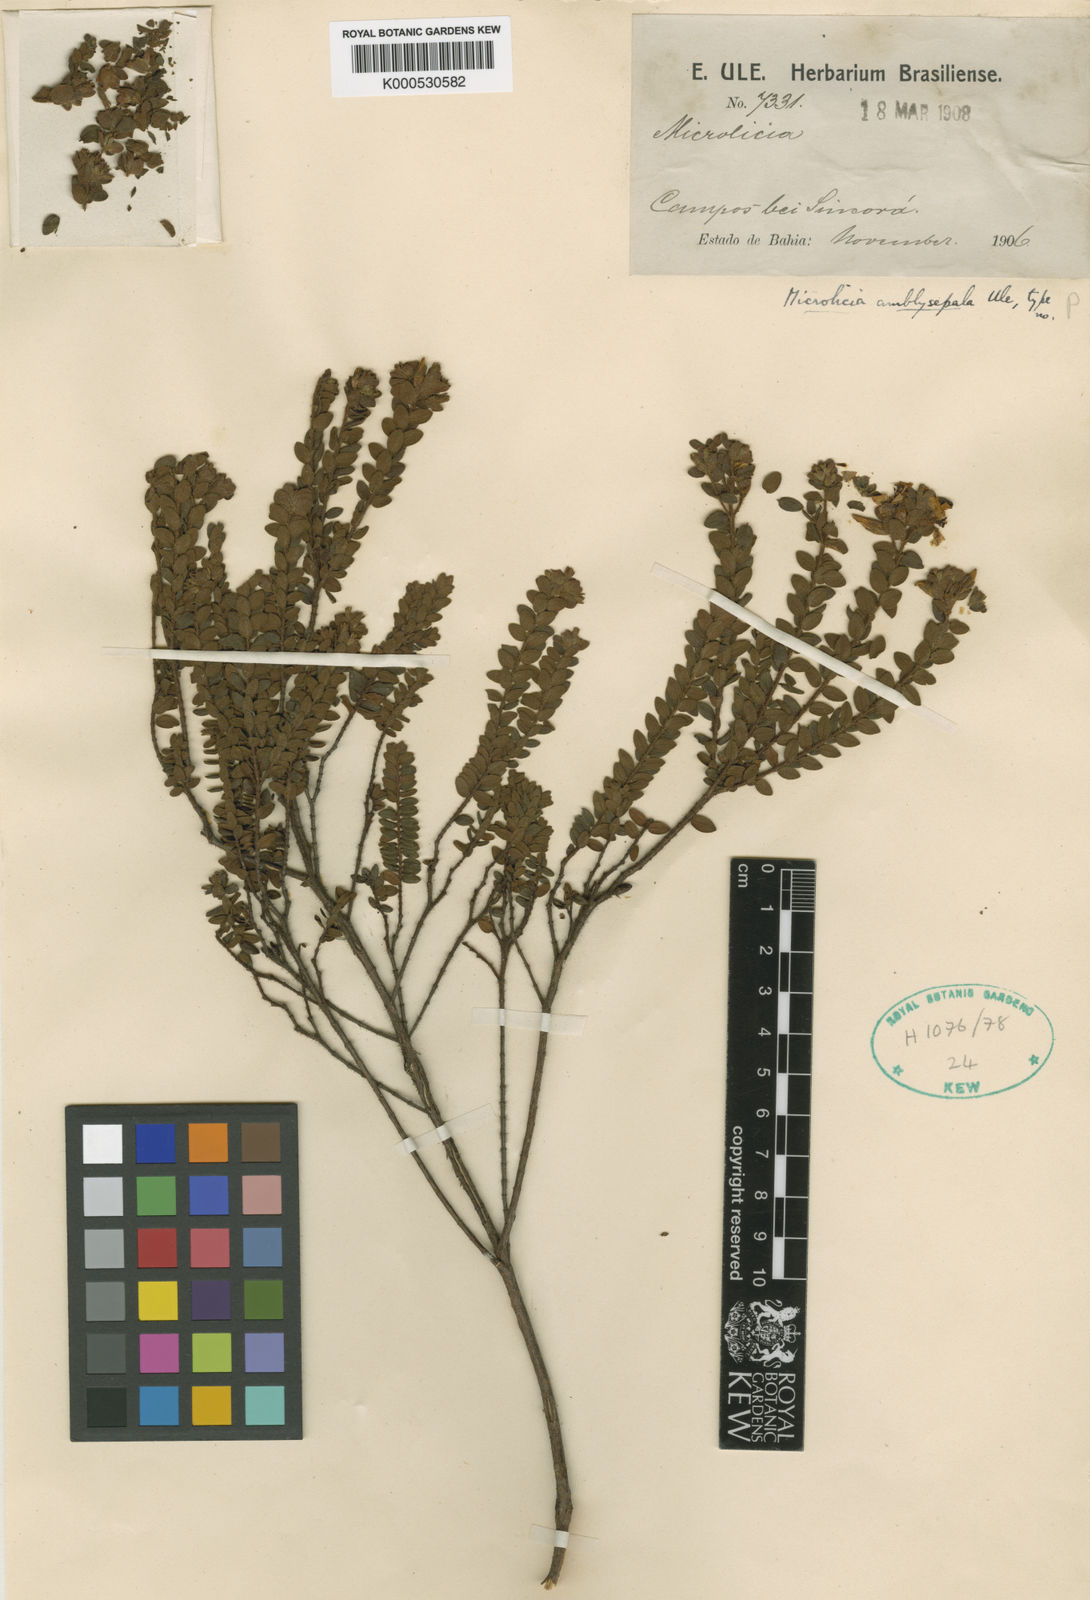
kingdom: Plantae
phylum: Tracheophyta
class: Magnoliopsida
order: Myrtales
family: Melastomataceae
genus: Microlicia
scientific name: Microlicia amblysepala
